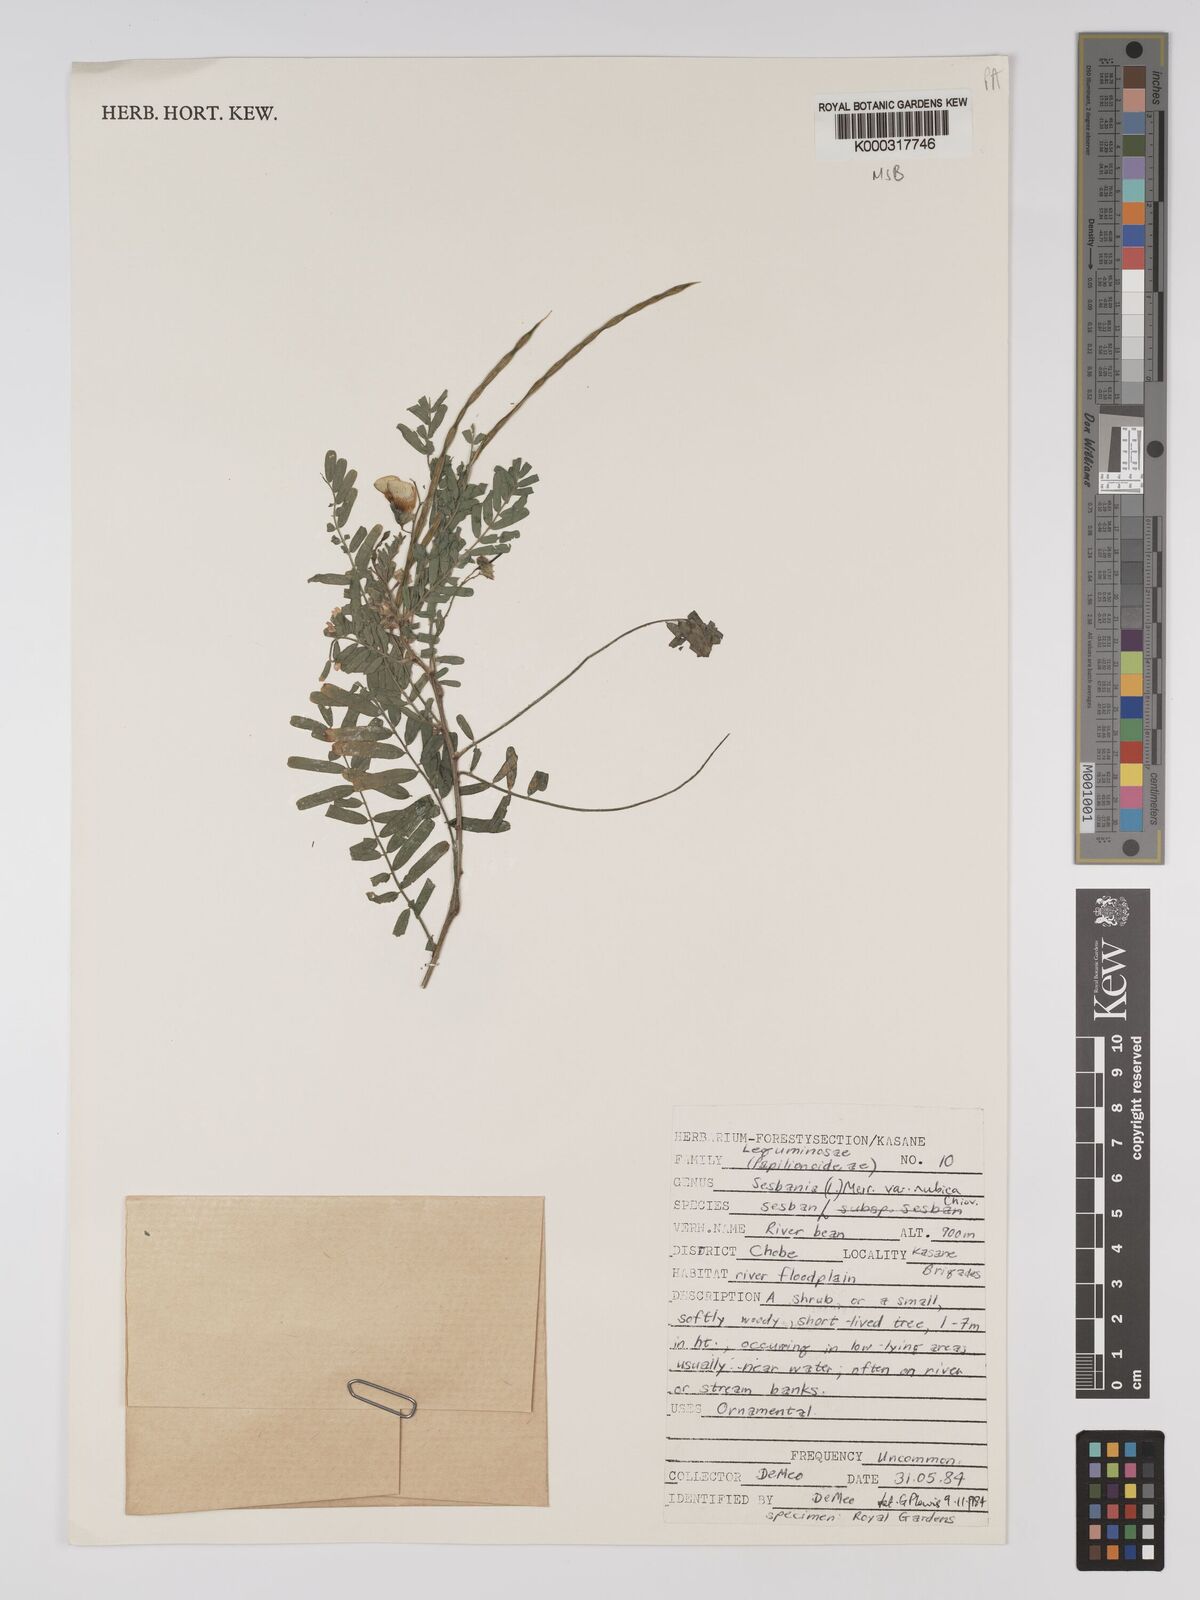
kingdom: Plantae
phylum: Tracheophyta
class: Magnoliopsida
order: Fabales
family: Fabaceae
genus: Sesbania
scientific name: Sesbania sesban
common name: Egyptian sesban
